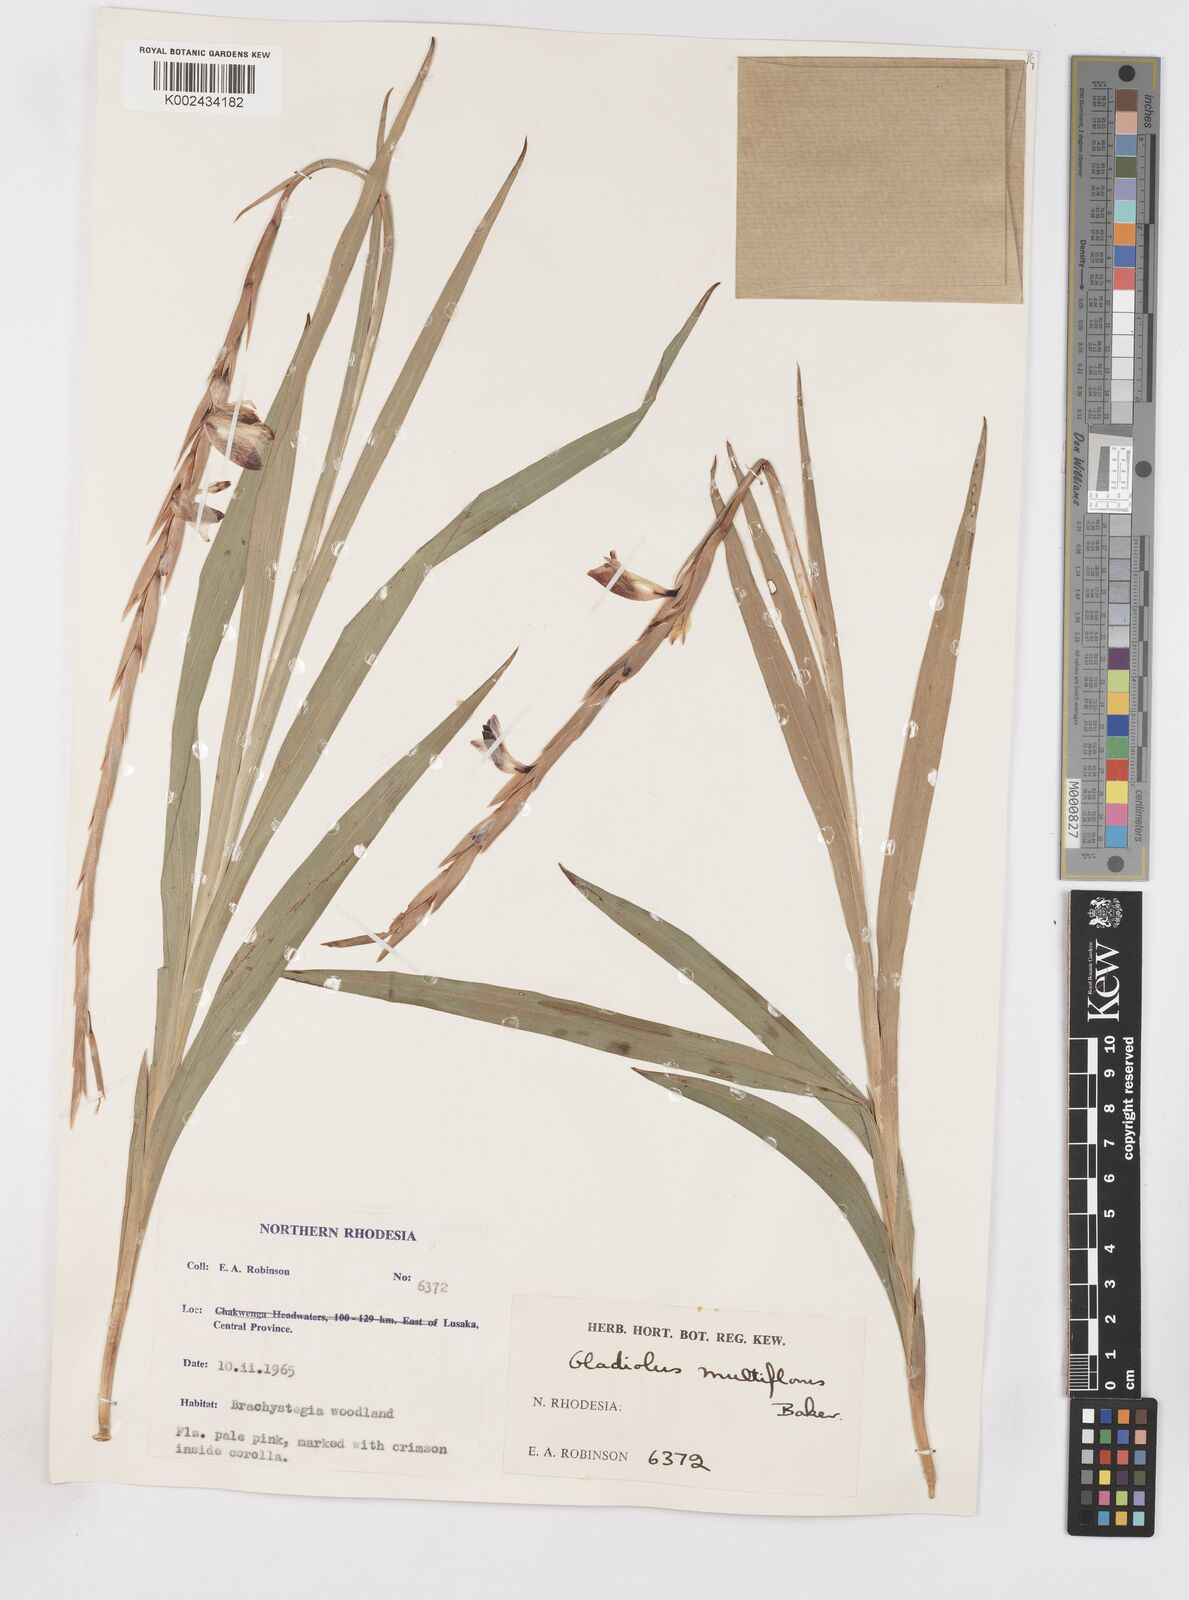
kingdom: Plantae
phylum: Tracheophyta
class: Liliopsida
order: Asparagales
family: Iridaceae
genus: Gladiolus
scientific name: Gladiolus gregarius
